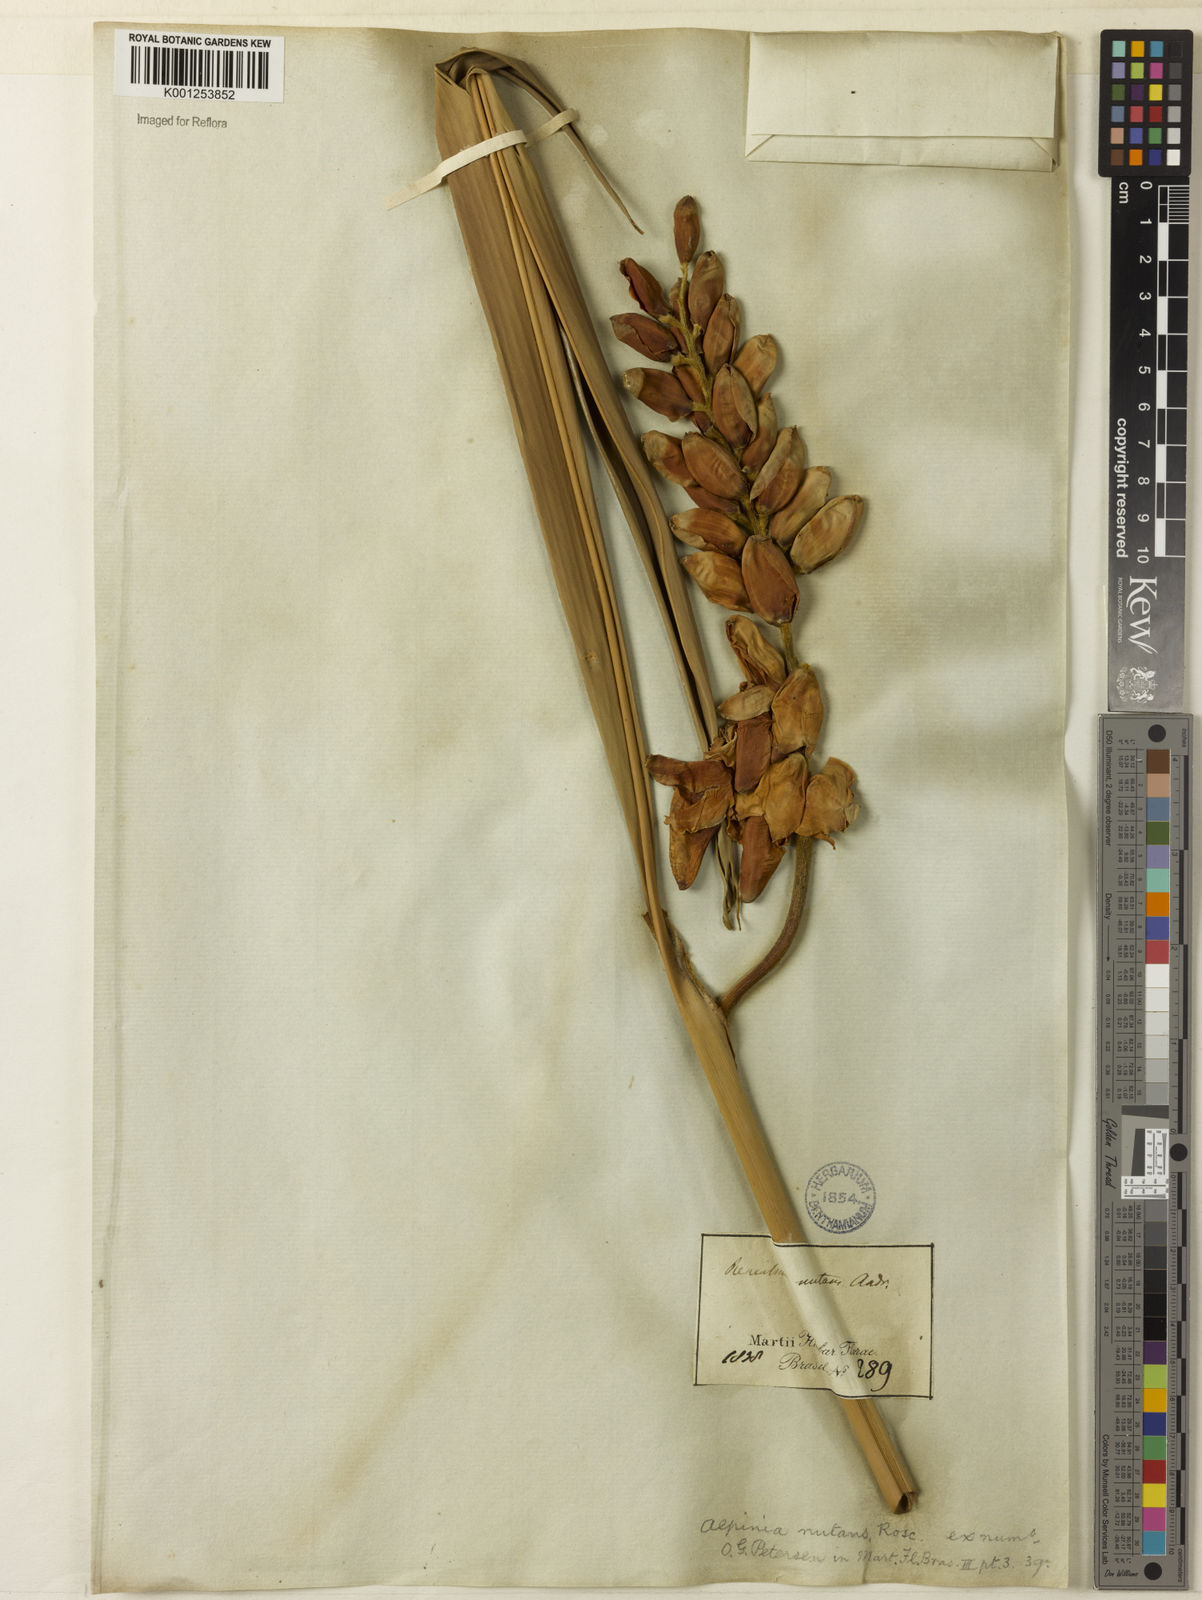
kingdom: Plantae
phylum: Tracheophyta
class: Liliopsida
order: Zingiberales
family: Zingiberaceae
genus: Alpinia
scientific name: Alpinia zerumbet
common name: Shellplant
